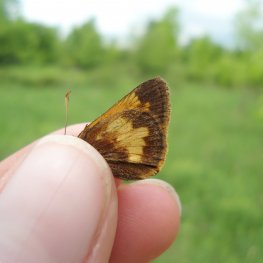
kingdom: Animalia
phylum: Arthropoda
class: Insecta
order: Lepidoptera
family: Hesperiidae
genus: Lon
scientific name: Lon hobomok
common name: Hobomok Skipper
